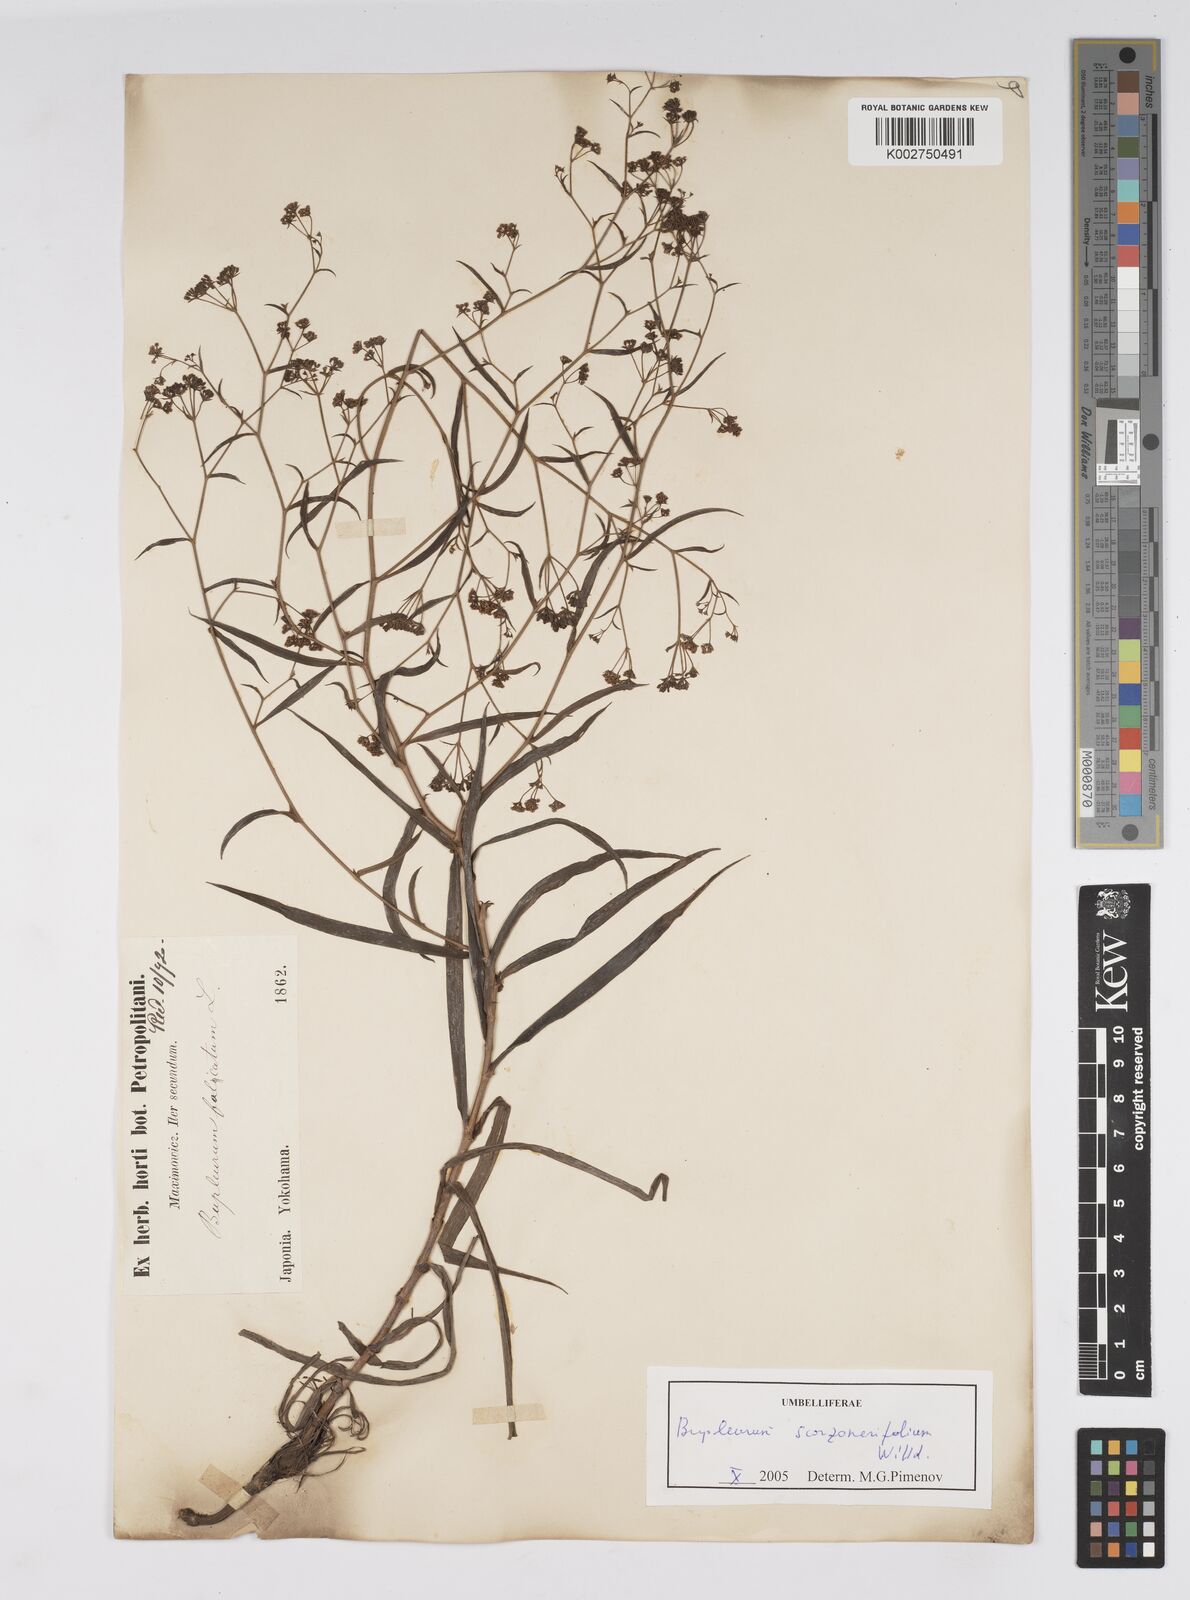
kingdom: Plantae
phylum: Tracheophyta
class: Magnoliopsida
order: Apiales
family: Apiaceae
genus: Bupleurum
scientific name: Bupleurum krylovianum
